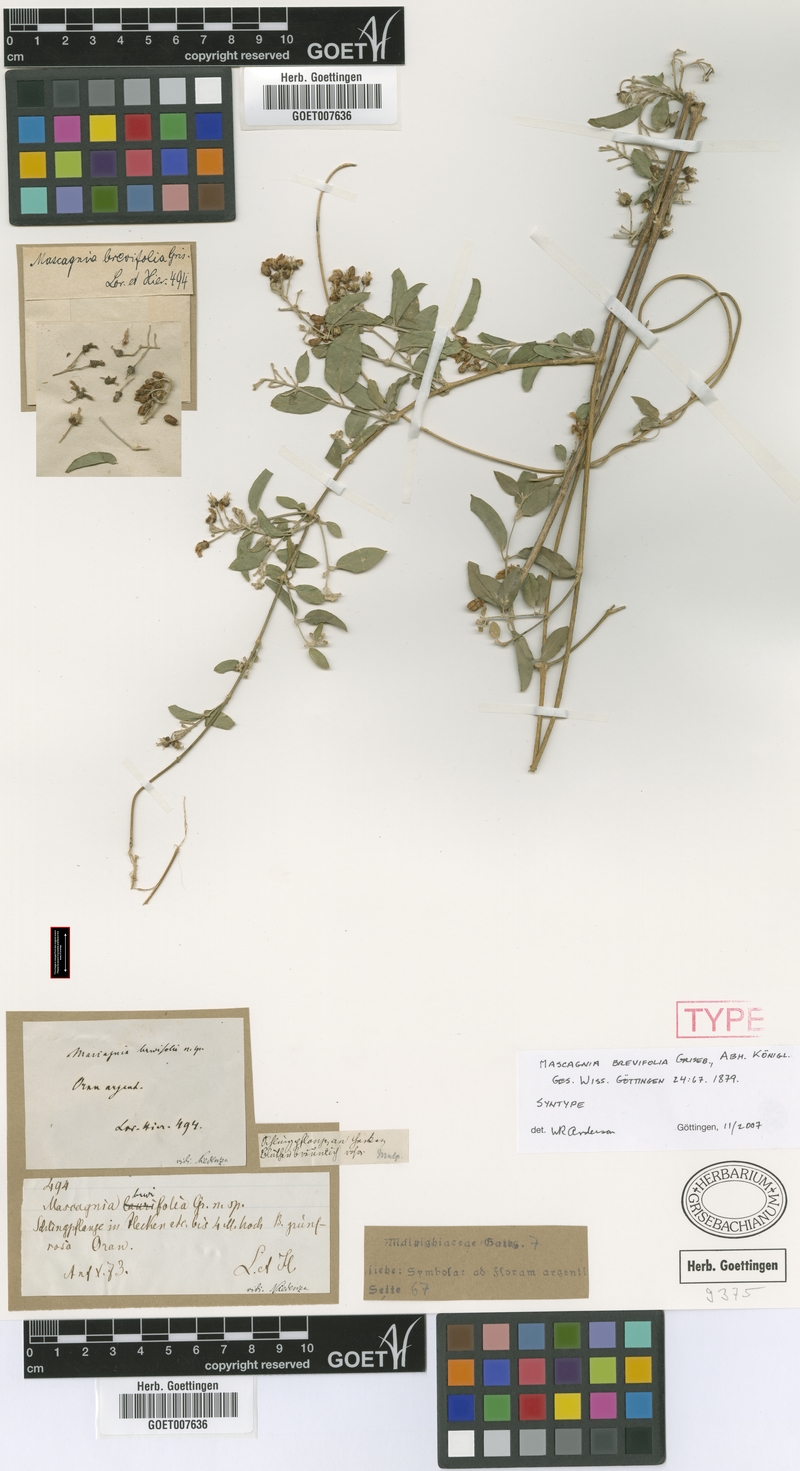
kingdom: Plantae
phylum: Tracheophyta
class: Magnoliopsida
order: Malpighiales
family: Malpighiaceae
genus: Mascagnia
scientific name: Mascagnia brevifolia
